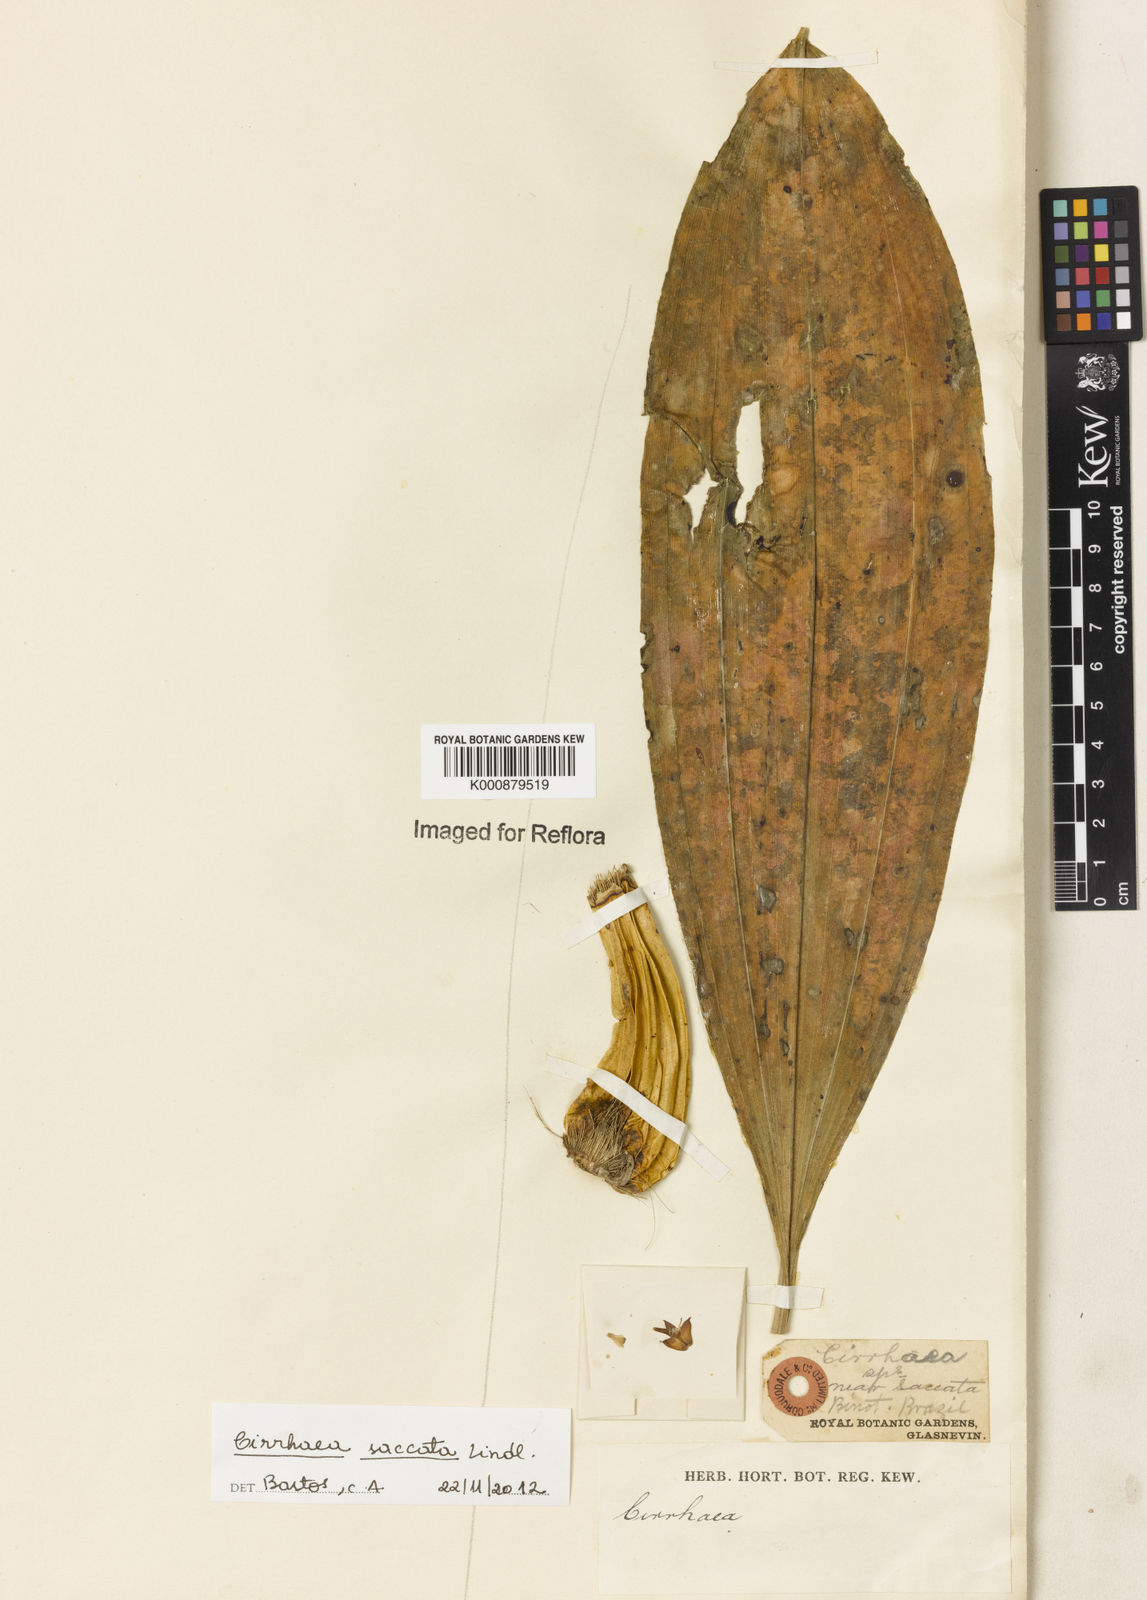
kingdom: Plantae
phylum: Tracheophyta
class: Liliopsida
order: Asparagales
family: Orchidaceae
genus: Cirrhaea
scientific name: Cirrhaea fuscolutea
